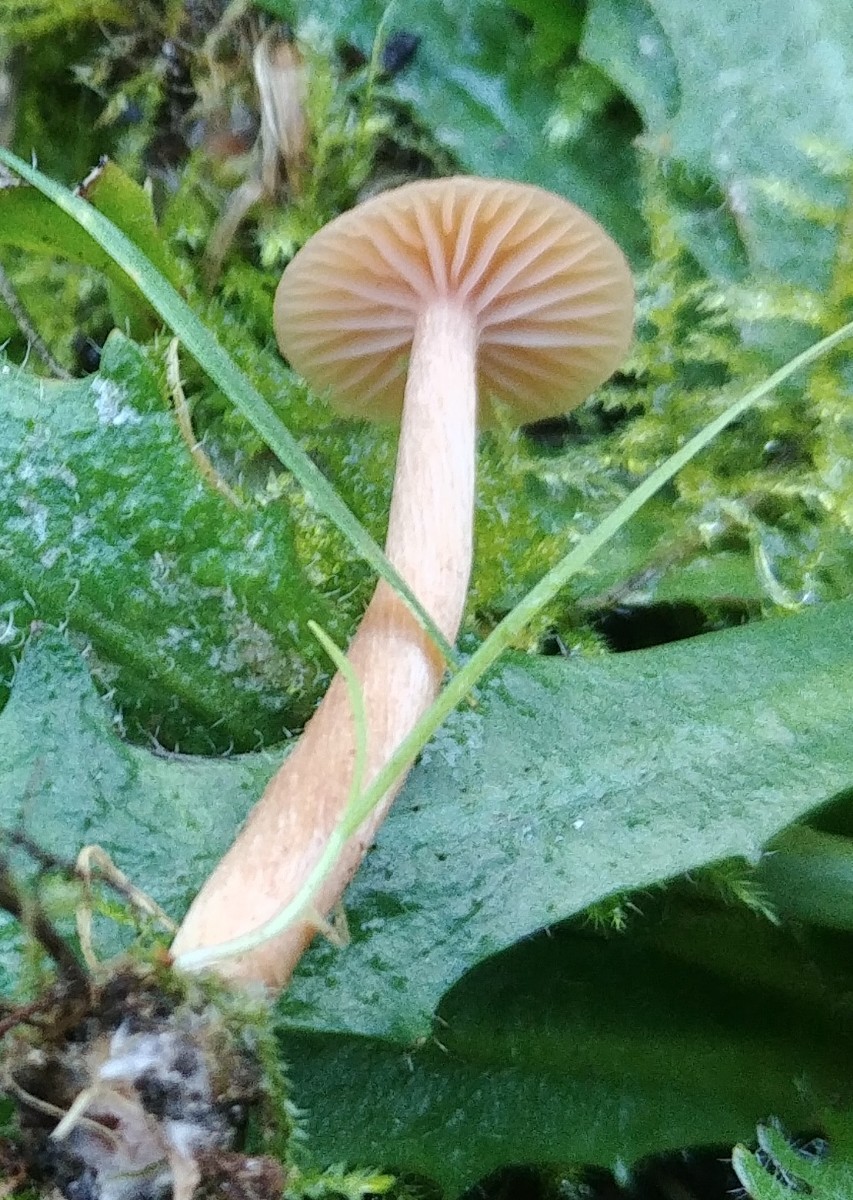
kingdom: Fungi
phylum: Basidiomycota
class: Agaricomycetes
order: Agaricales
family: Hydnangiaceae
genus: Laccaria
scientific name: Laccaria laccata
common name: rød ametysthat
